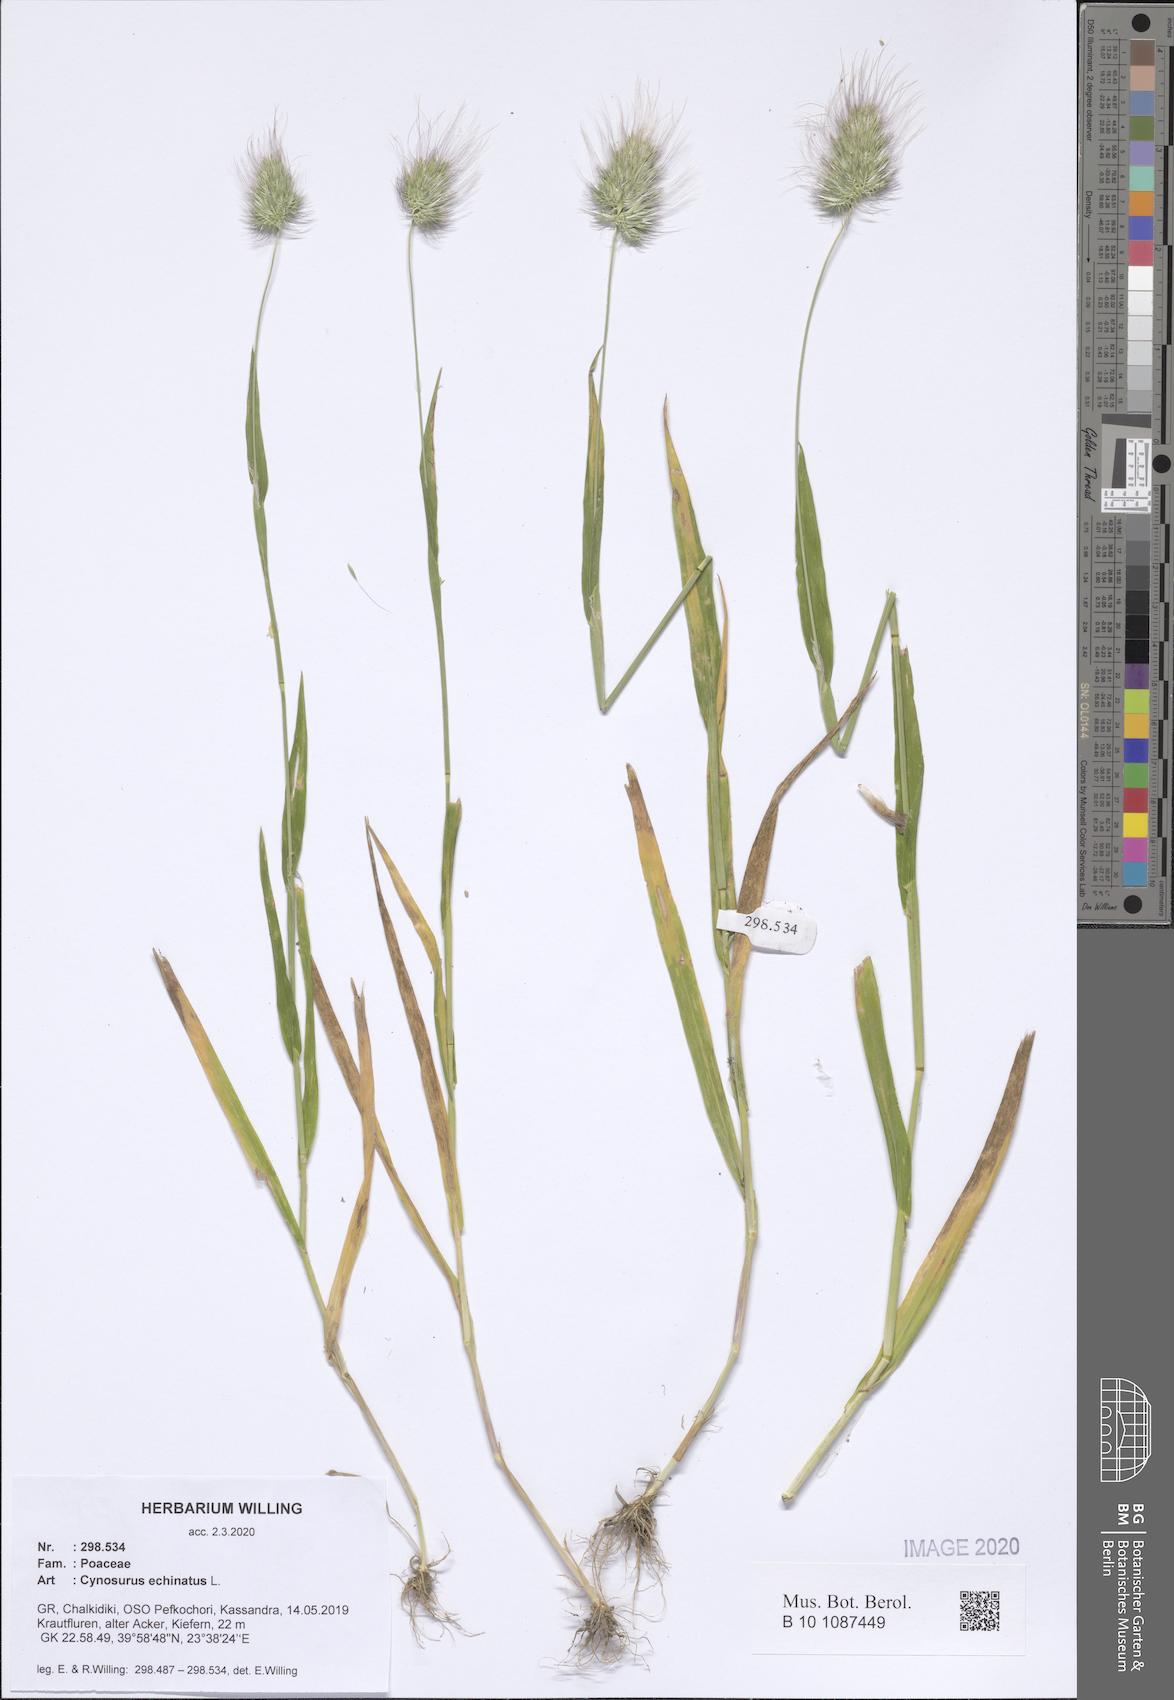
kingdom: Plantae
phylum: Tracheophyta
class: Liliopsida
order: Poales
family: Poaceae
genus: Cynosurus
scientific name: Cynosurus echinatus
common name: Rough dog's-tail
